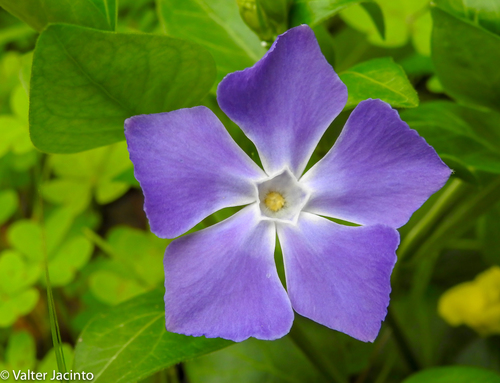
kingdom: Plantae
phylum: Tracheophyta
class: Magnoliopsida
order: Gentianales
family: Apocynaceae
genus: Vinca
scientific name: Vinca difformis
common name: Intermediate periwinkle
